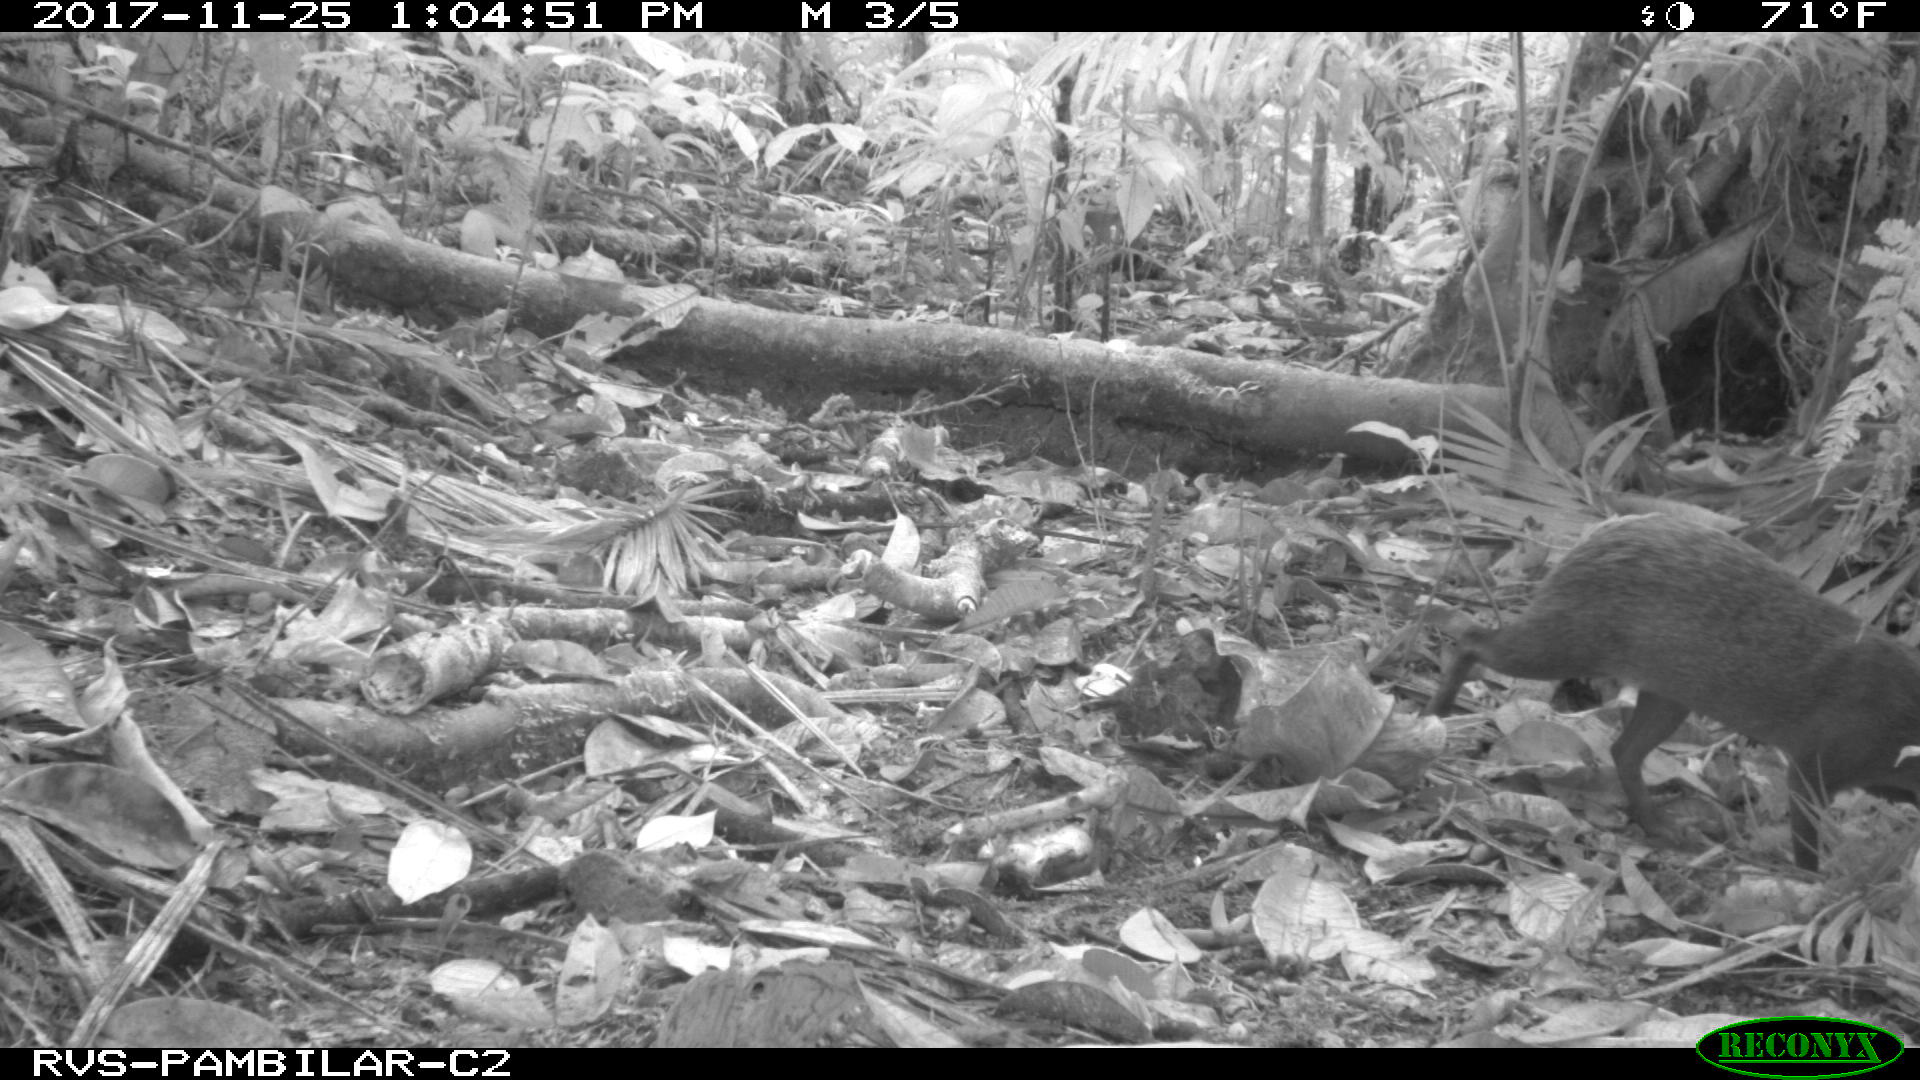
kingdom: Animalia
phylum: Chordata
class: Mammalia
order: Rodentia
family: Dasyproctidae
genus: Dasyprocta
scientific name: Dasyprocta punctata
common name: Central american agouti
